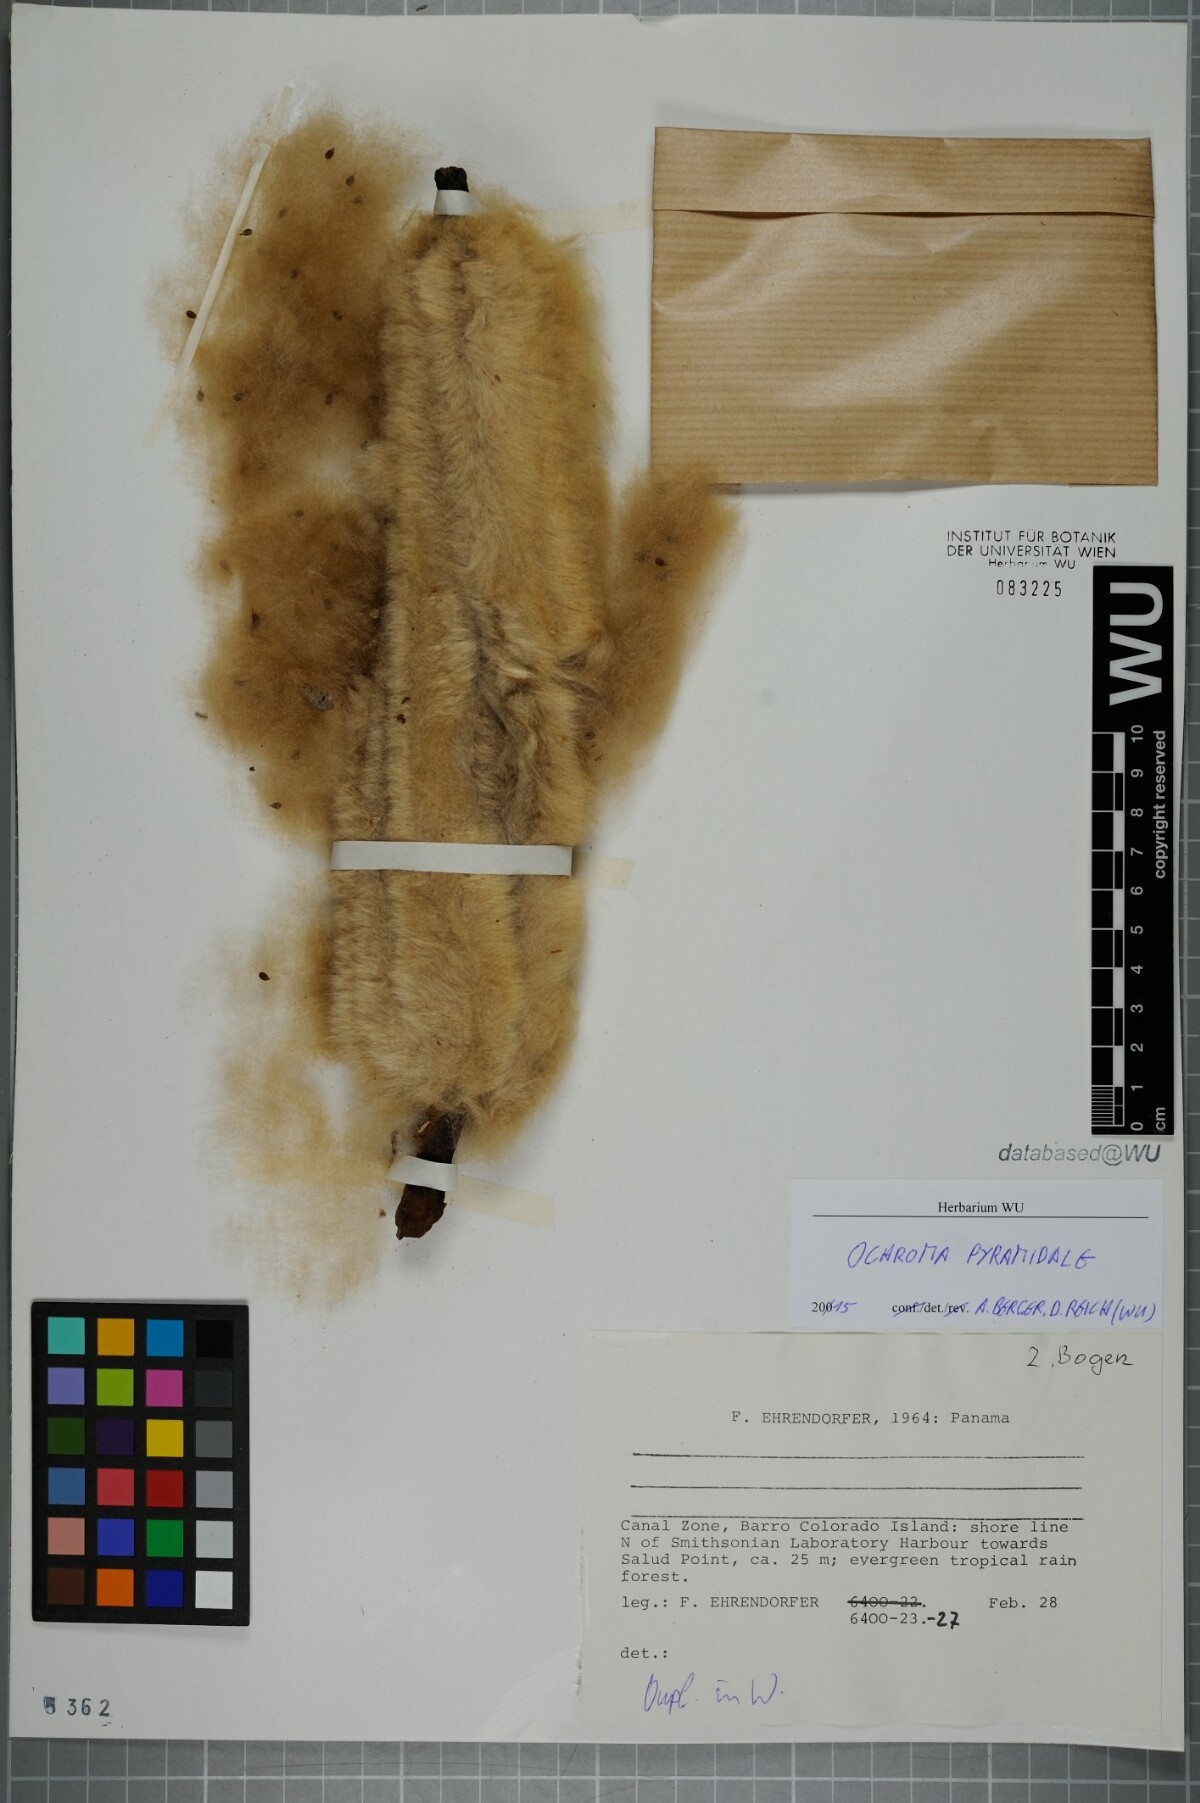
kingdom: Plantae
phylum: Tracheophyta
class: Magnoliopsida
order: Malvales
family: Malvaceae
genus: Ochroma
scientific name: Ochroma pyramidale
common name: Balsa
